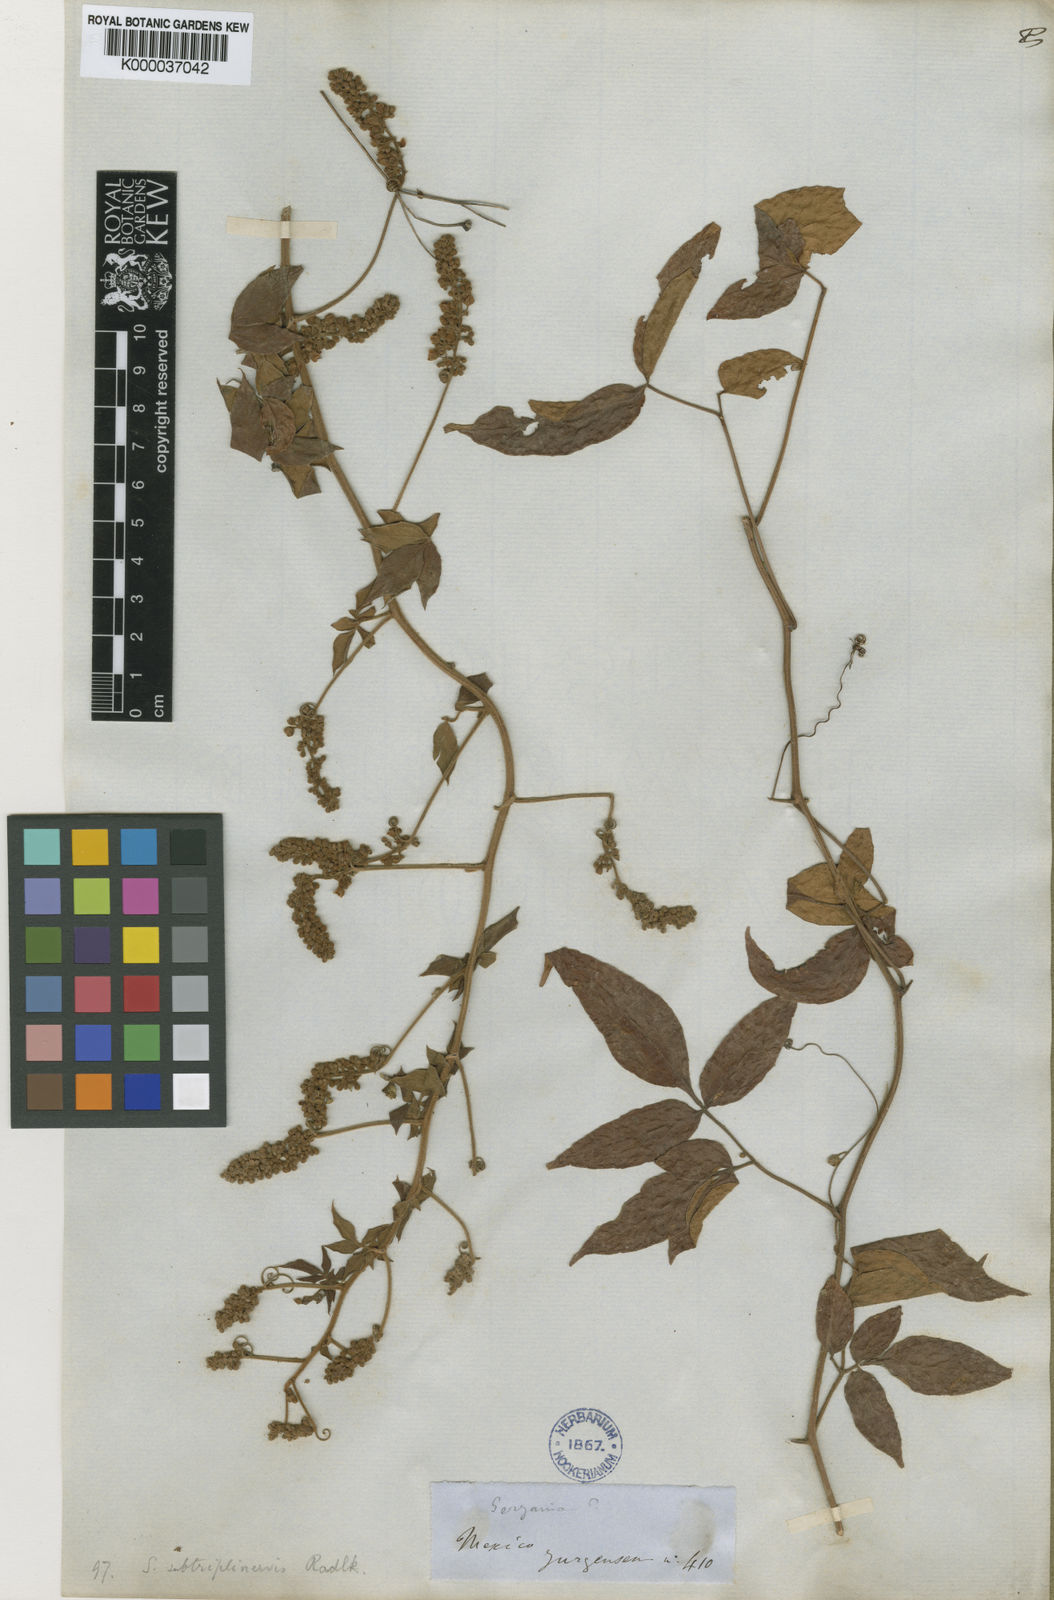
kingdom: Plantae
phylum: Tracheophyta
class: Magnoliopsida
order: Sapindales
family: Sapindaceae
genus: Serjania
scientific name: Serjania subtriplinervis
